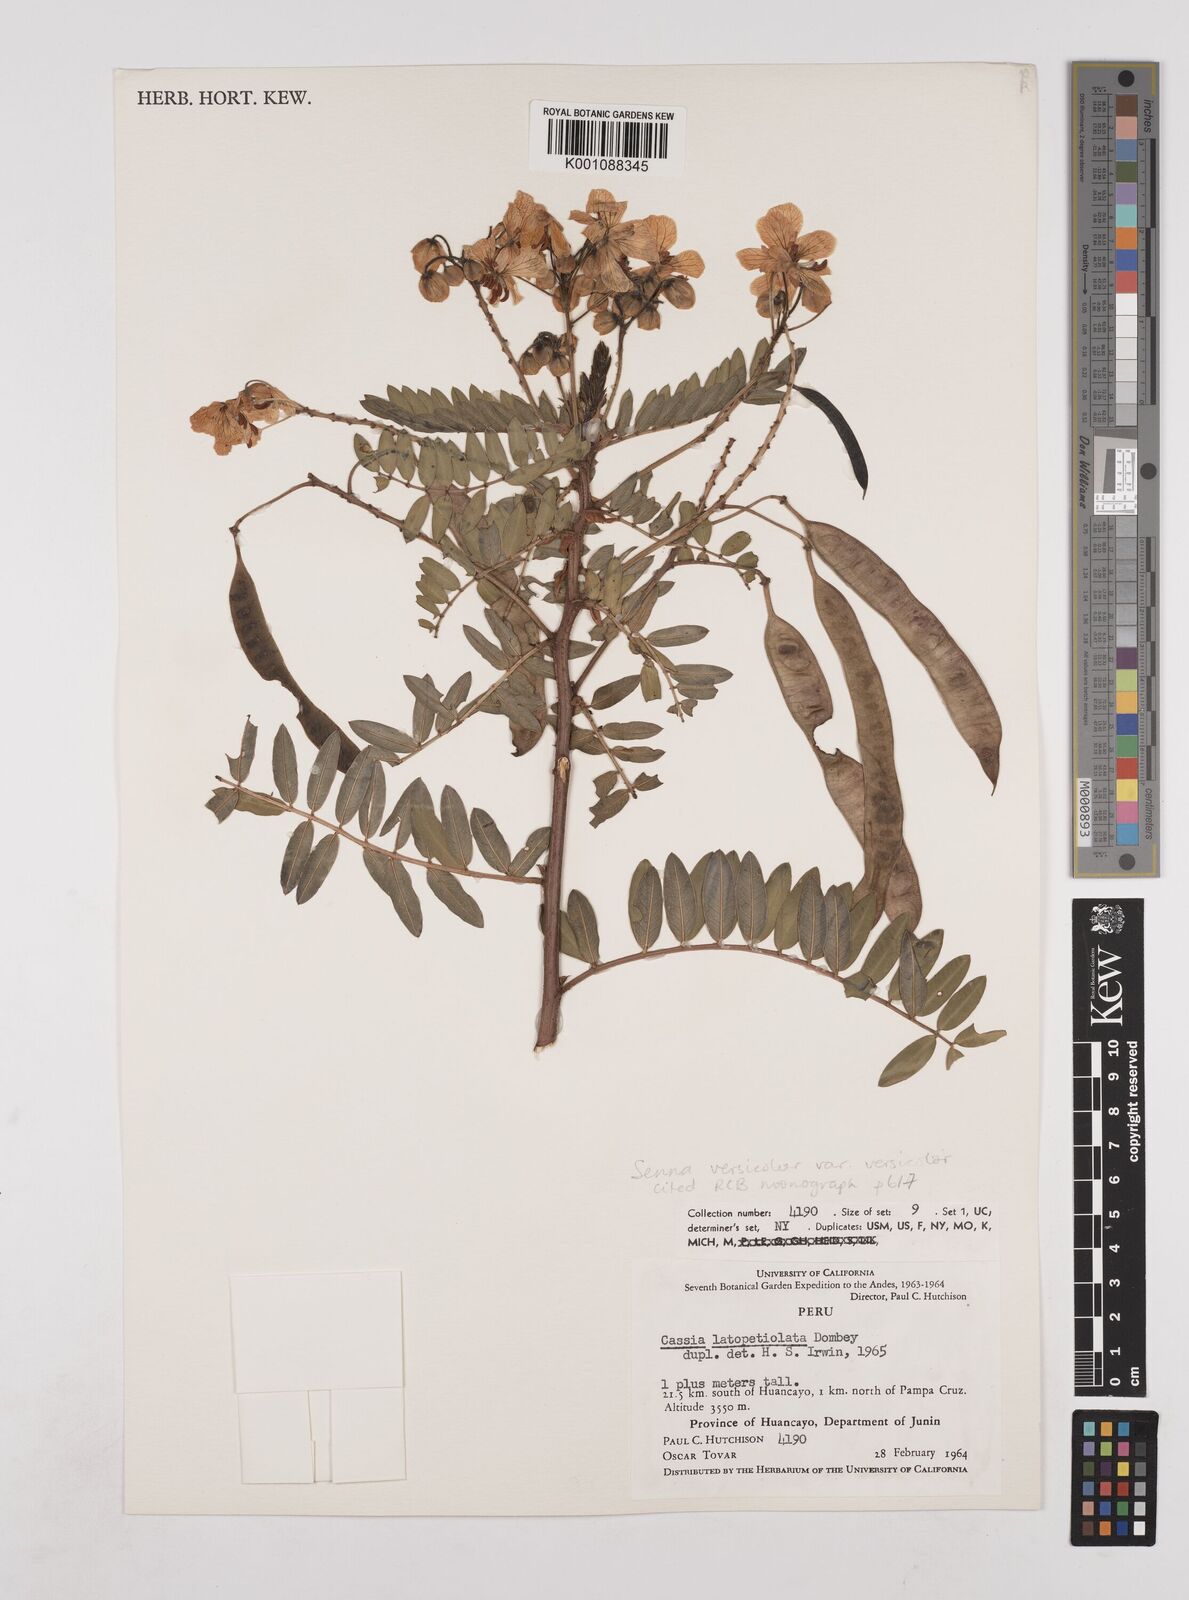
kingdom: Plantae
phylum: Tracheophyta
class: Magnoliopsida
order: Fabales
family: Fabaceae
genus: Senna
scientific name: Senna versicolor
